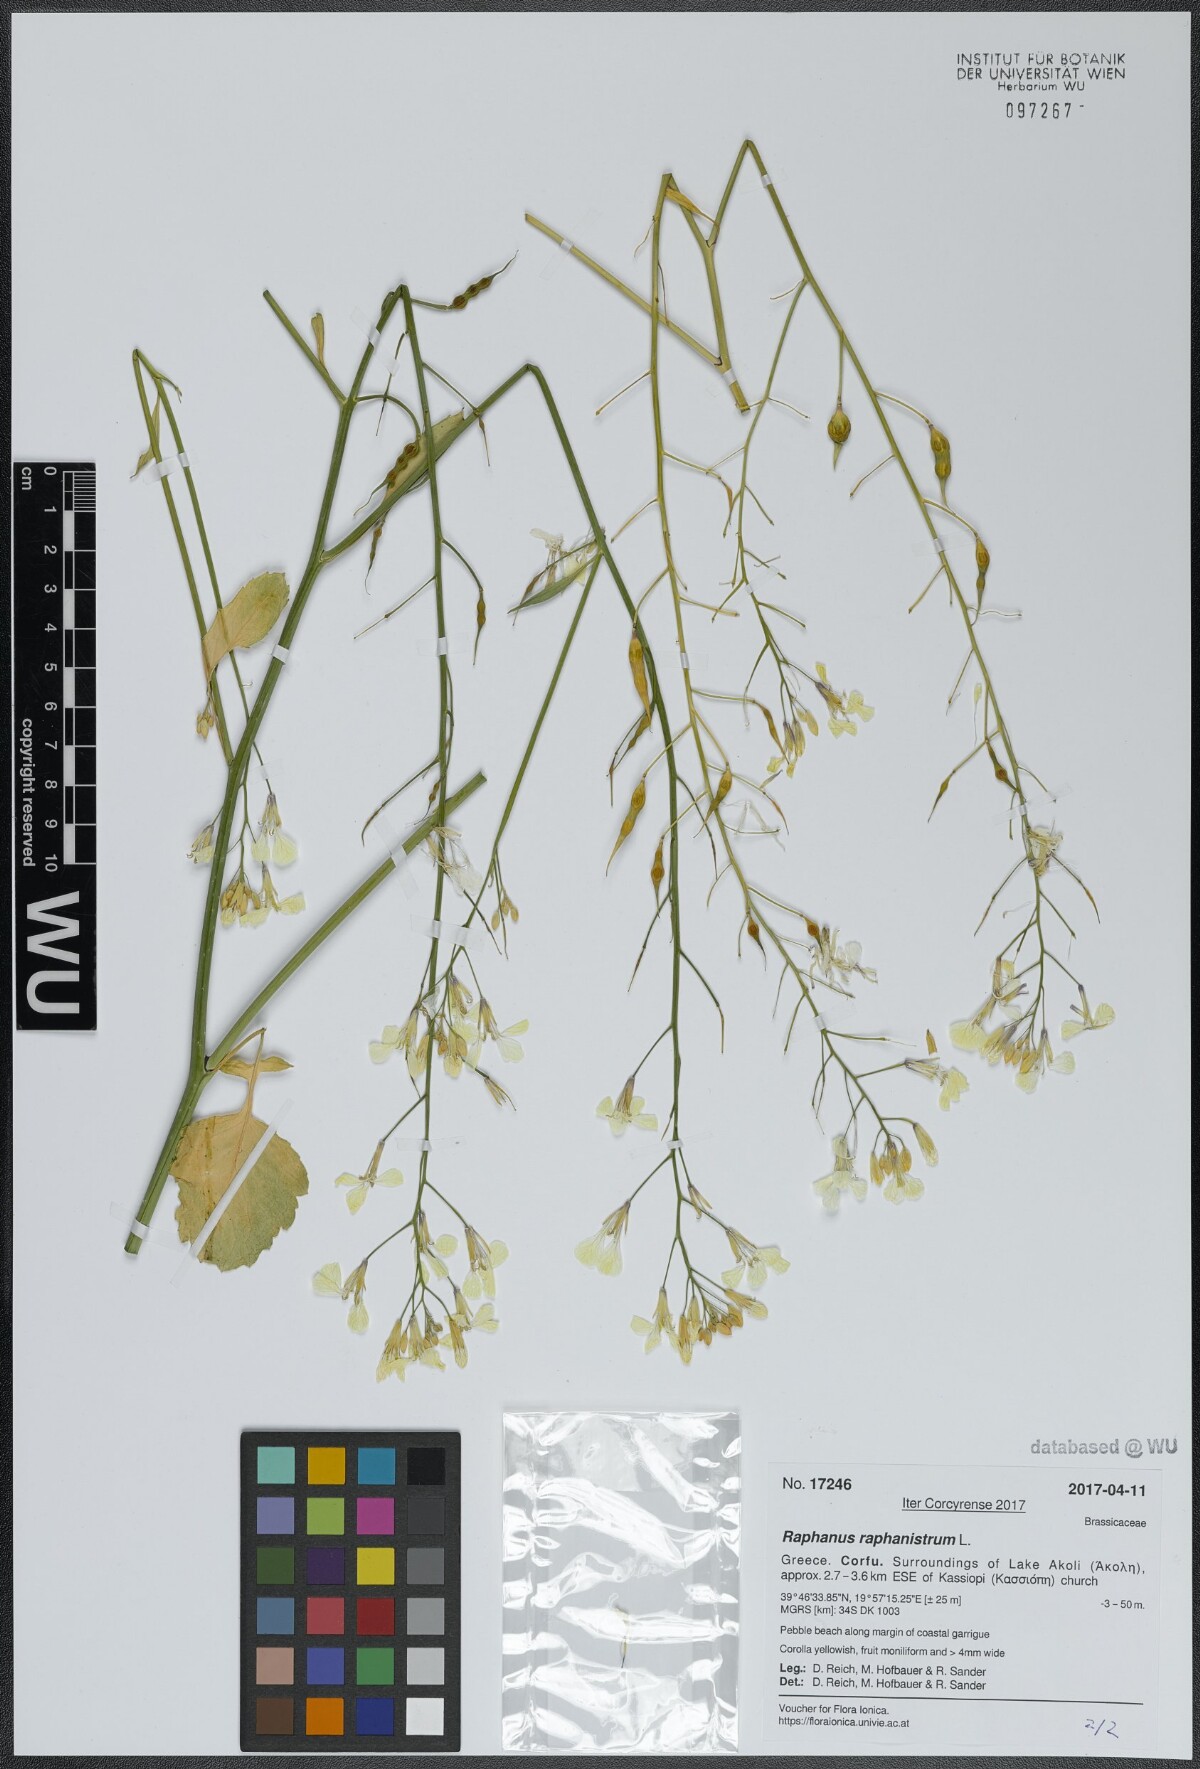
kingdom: Plantae
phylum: Tracheophyta
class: Magnoliopsida
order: Brassicales
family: Brassicaceae
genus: Raphanus
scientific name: Raphanus raphanistrum
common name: Wild radish
